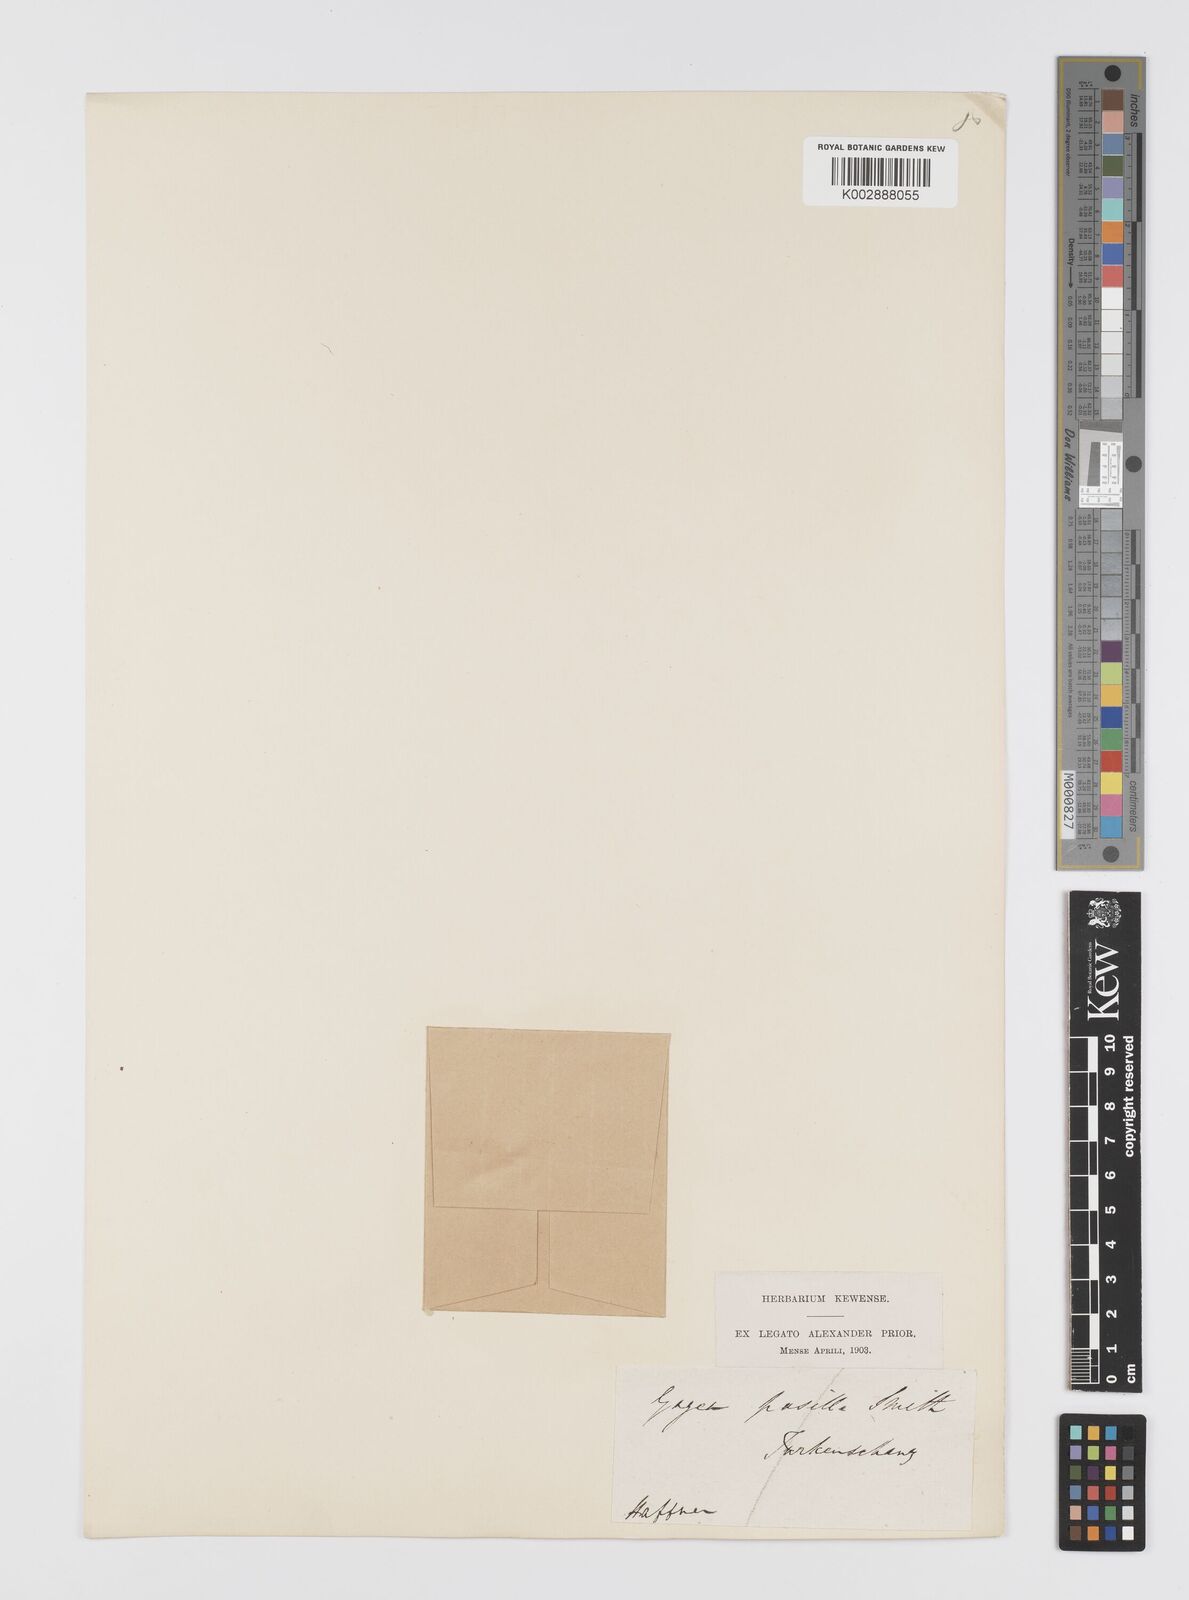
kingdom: Plantae
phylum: Tracheophyta
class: Liliopsida
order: Liliales
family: Liliaceae
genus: Gagea
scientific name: Gagea pusilla
